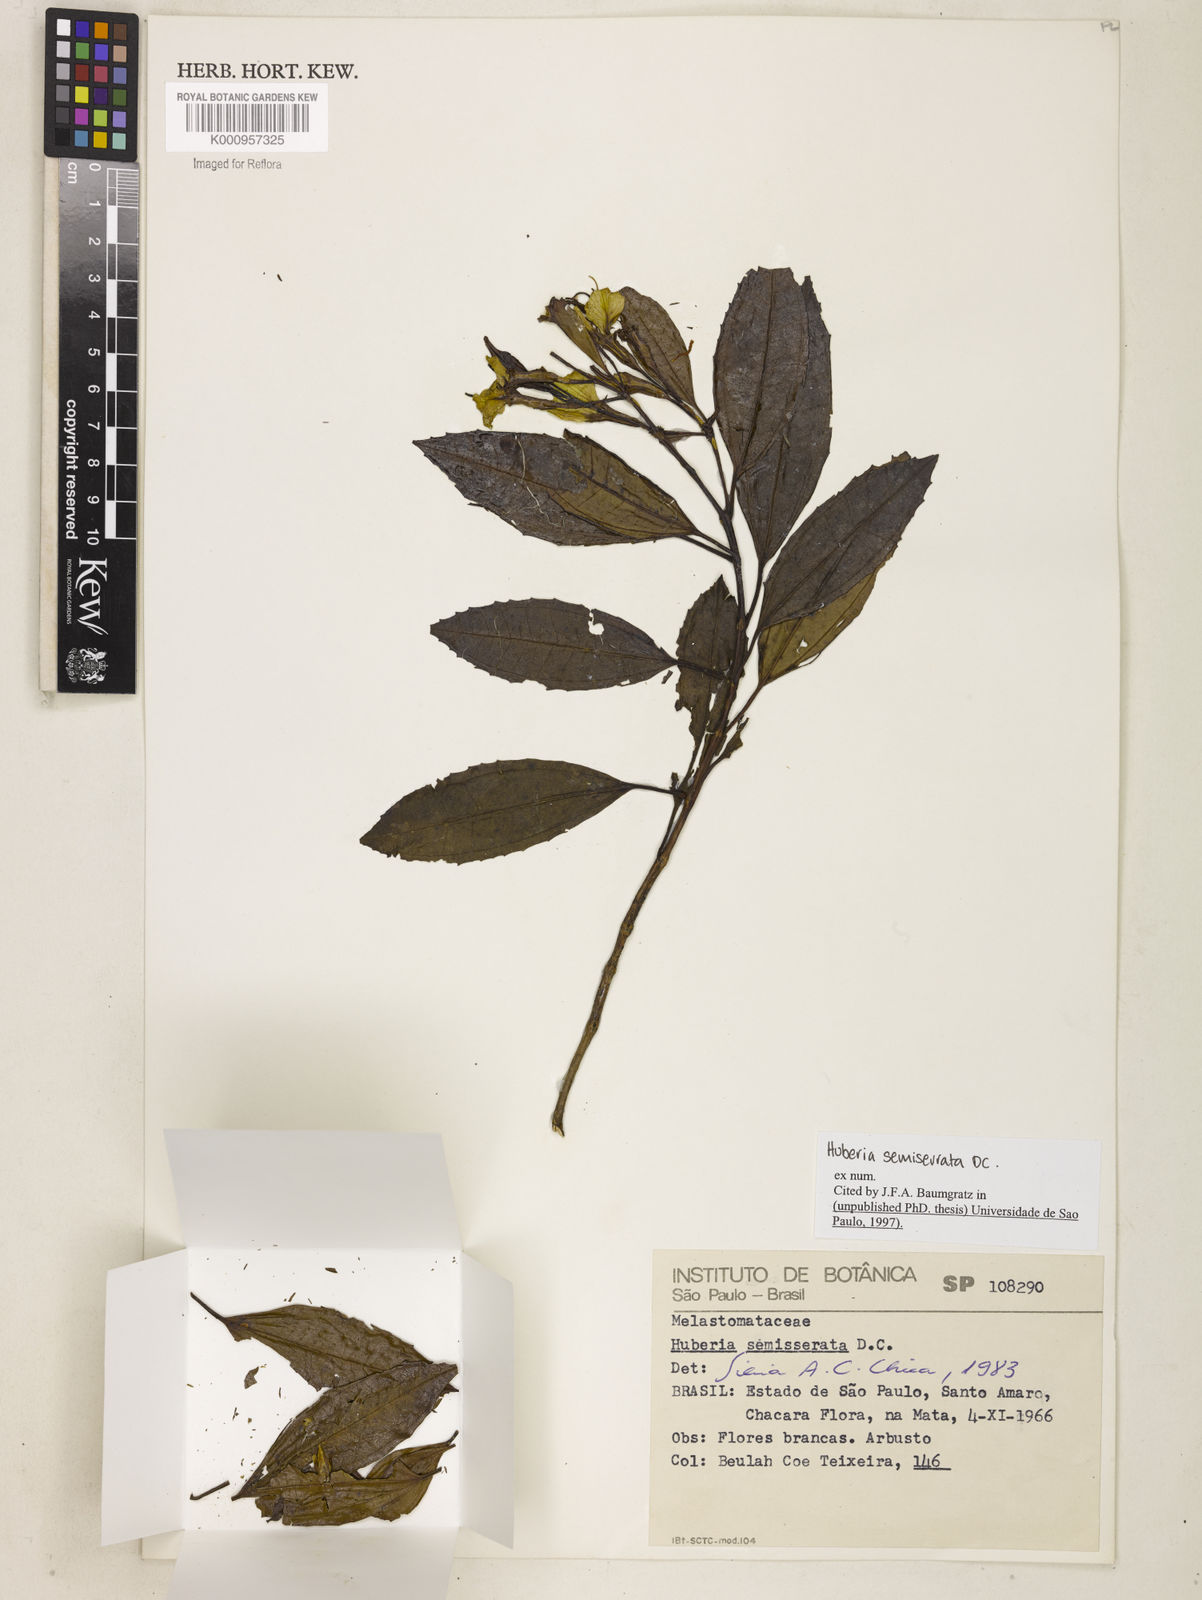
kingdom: Plantae
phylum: Tracheophyta
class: Magnoliopsida
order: Myrtales
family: Melastomataceae
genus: Huberia
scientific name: Huberia semiserrata
